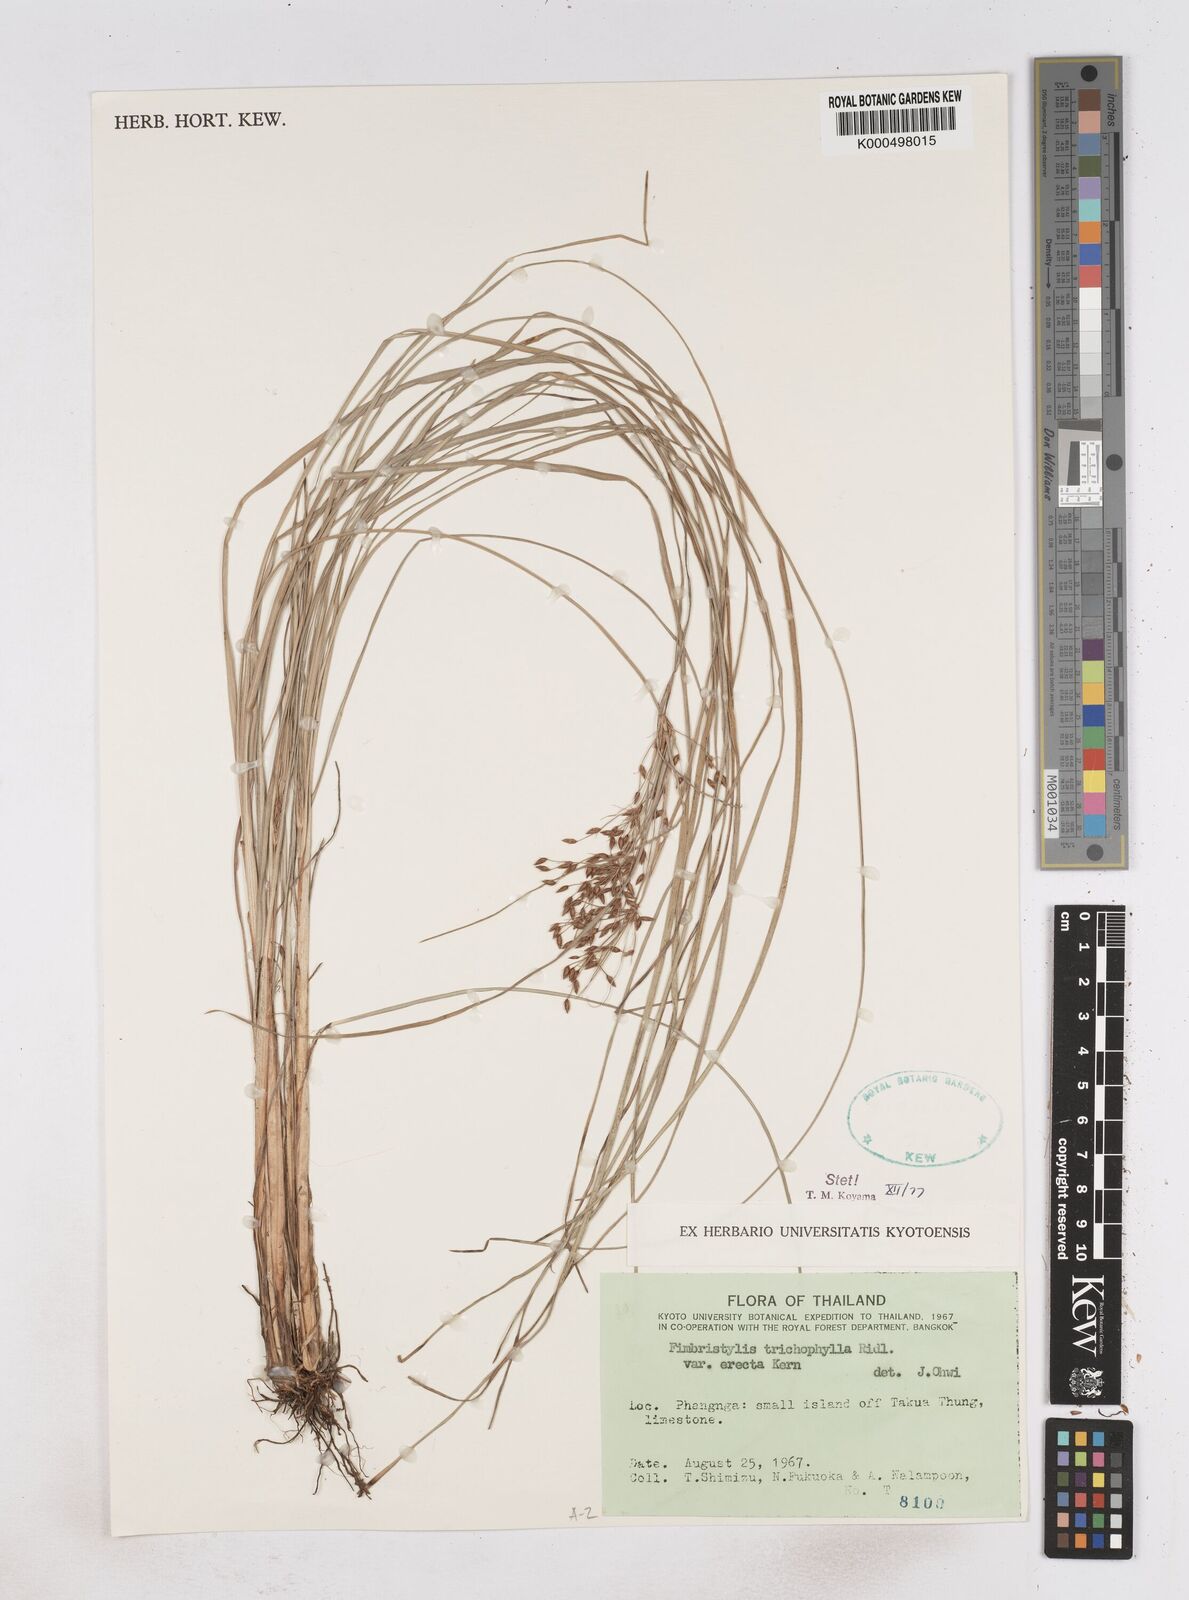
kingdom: Plantae
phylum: Tracheophyta
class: Liliopsida
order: Poales
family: Cyperaceae
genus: Fimbristylis
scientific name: Fimbristylis trichophylla
